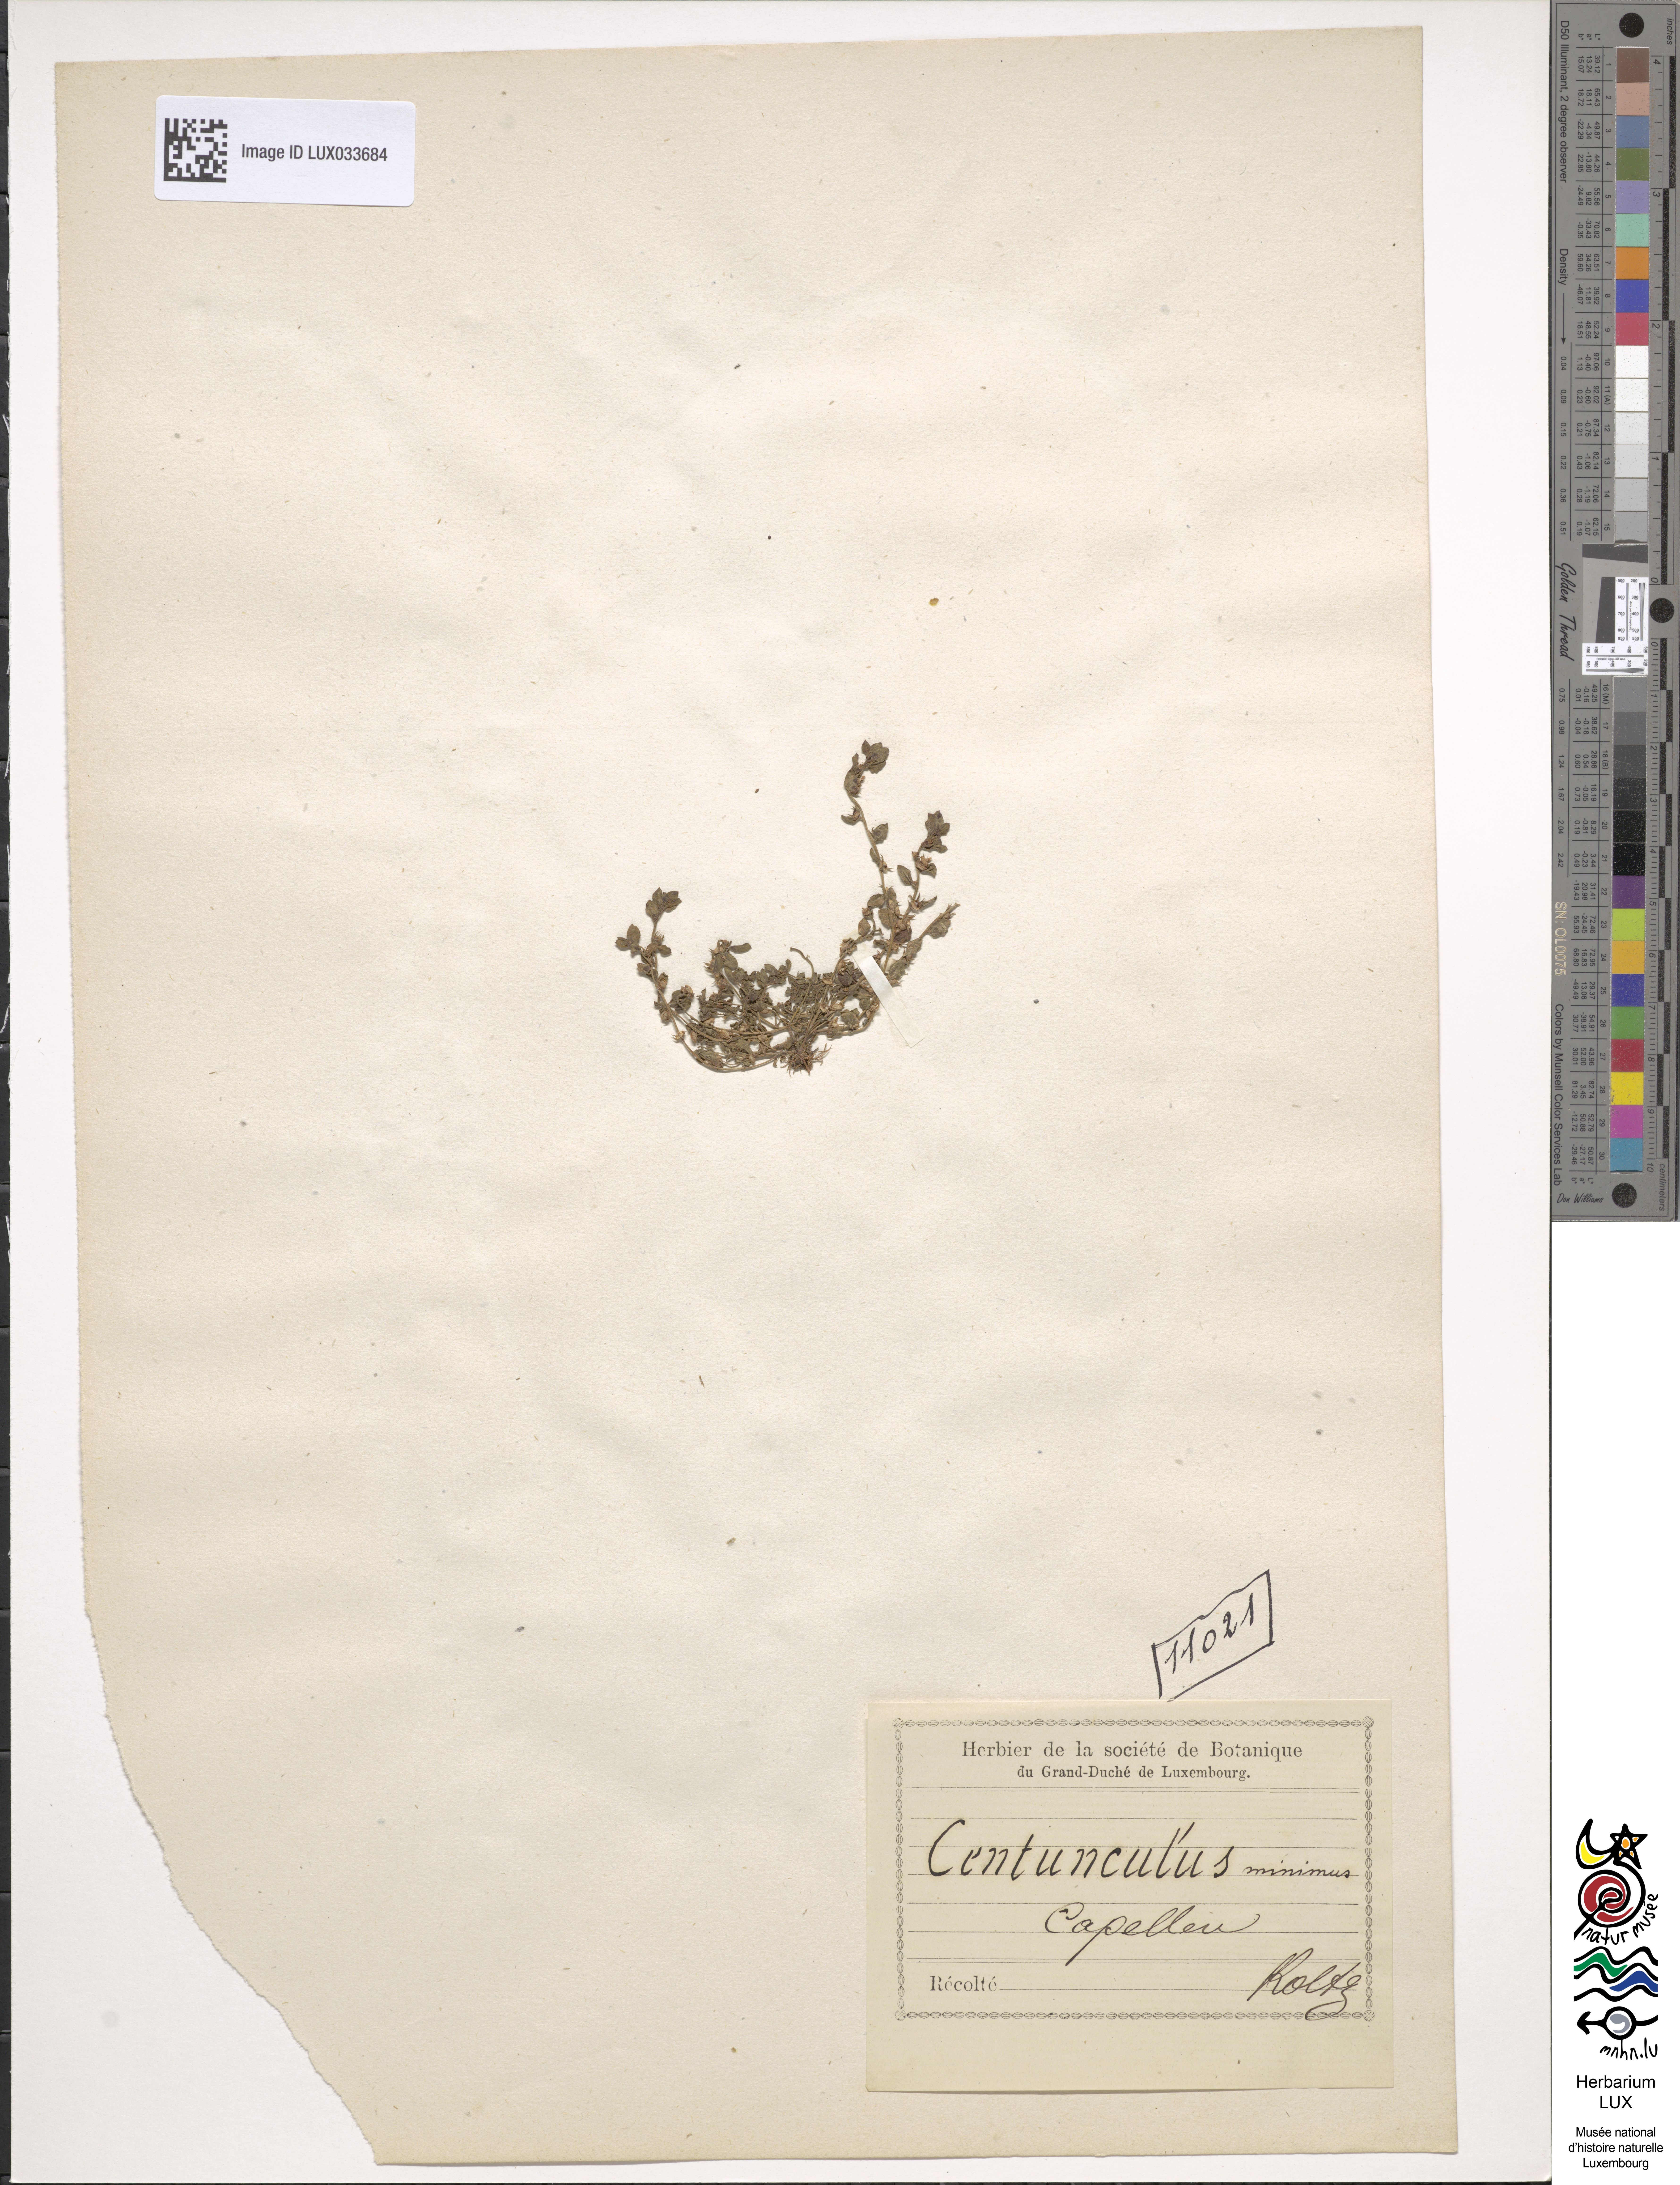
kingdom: Plantae
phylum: Tracheophyta
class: Magnoliopsida
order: Ericales
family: Primulaceae
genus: Lysimachia
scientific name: Lysimachia minima
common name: Chaffweed
